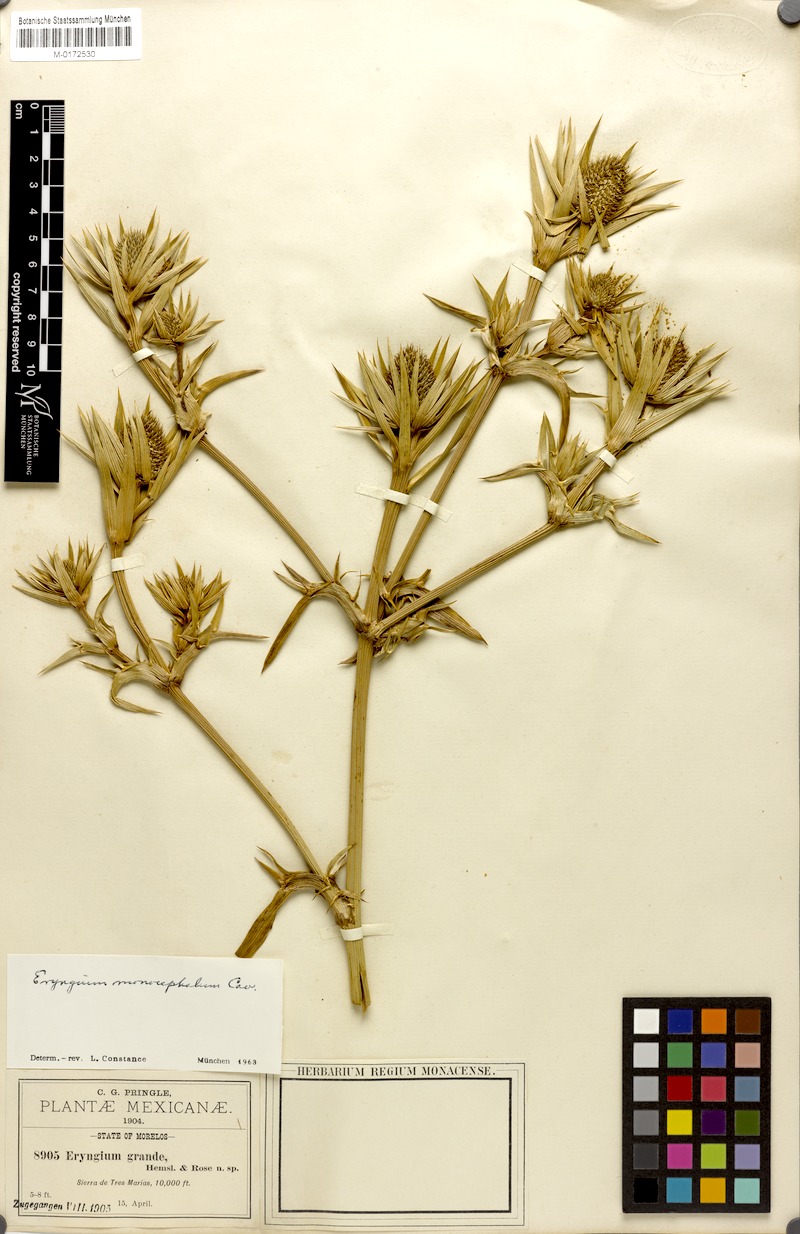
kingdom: Plantae
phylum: Tracheophyta
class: Magnoliopsida
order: Apiales
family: Apiaceae
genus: Eryngium
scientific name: Eryngium monocephalum
